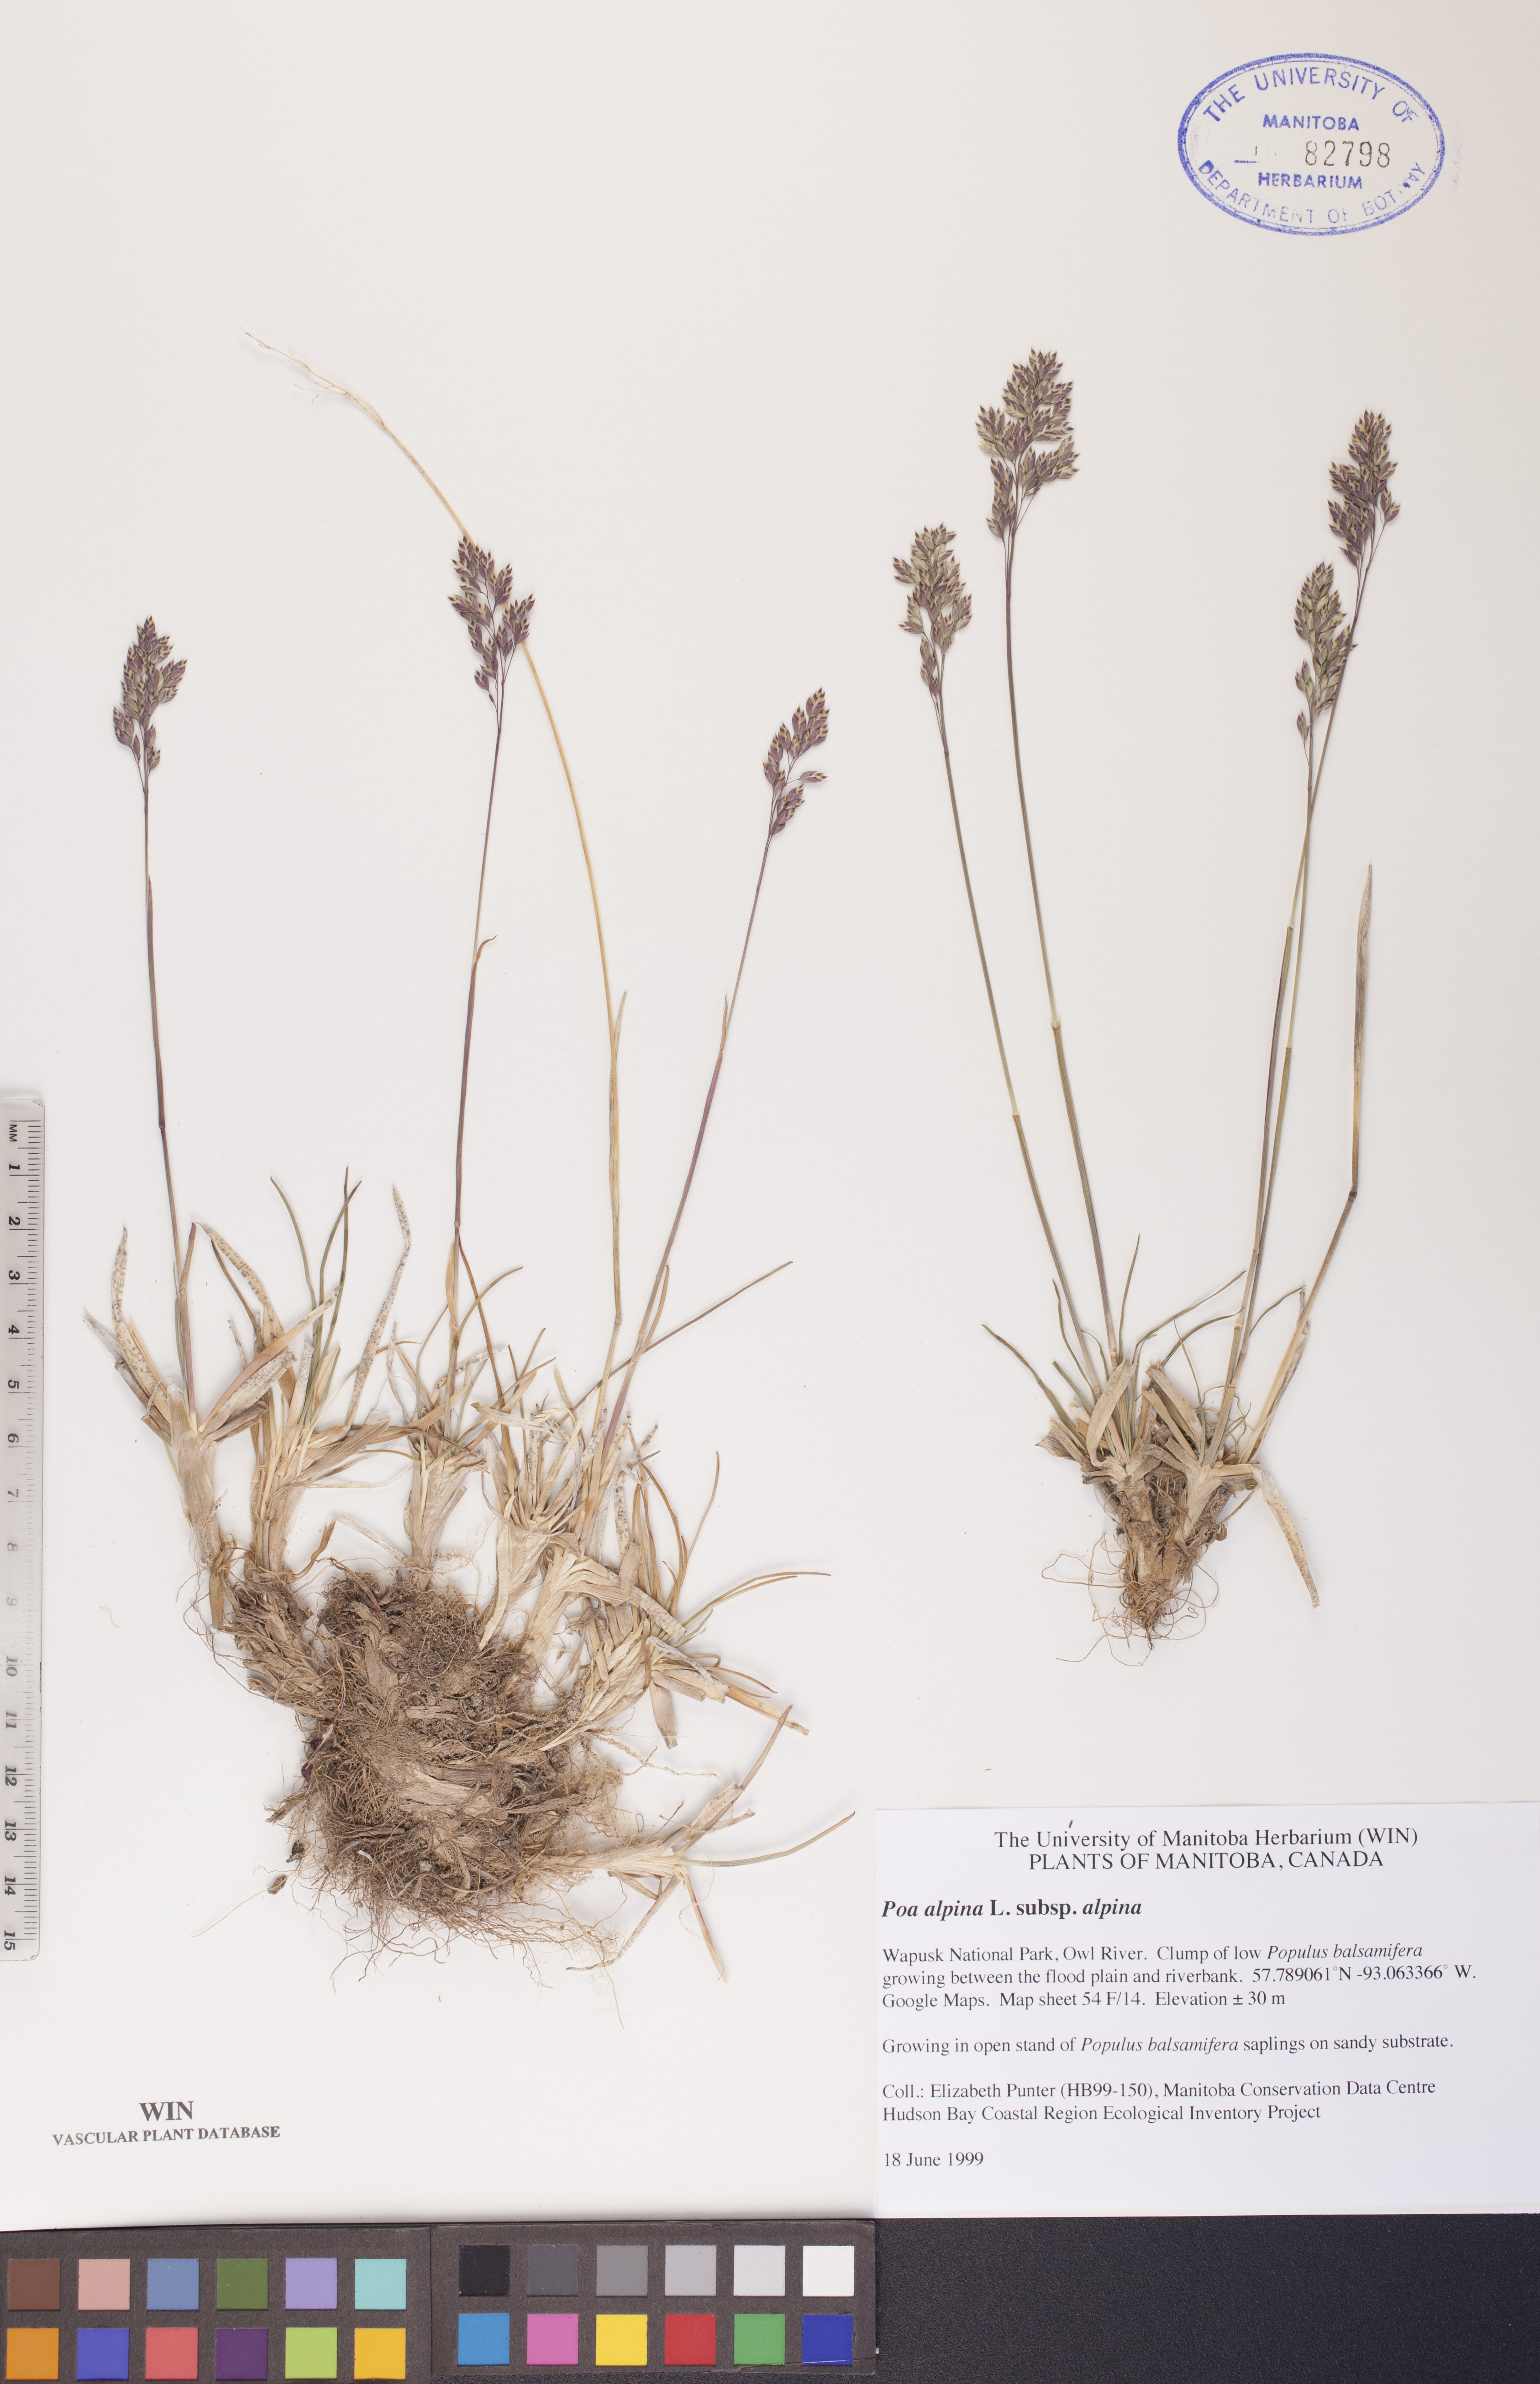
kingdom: Plantae
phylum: Tracheophyta
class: Liliopsida
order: Poales
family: Poaceae
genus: Poa
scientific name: Poa alpina
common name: Alpine bluegrass
